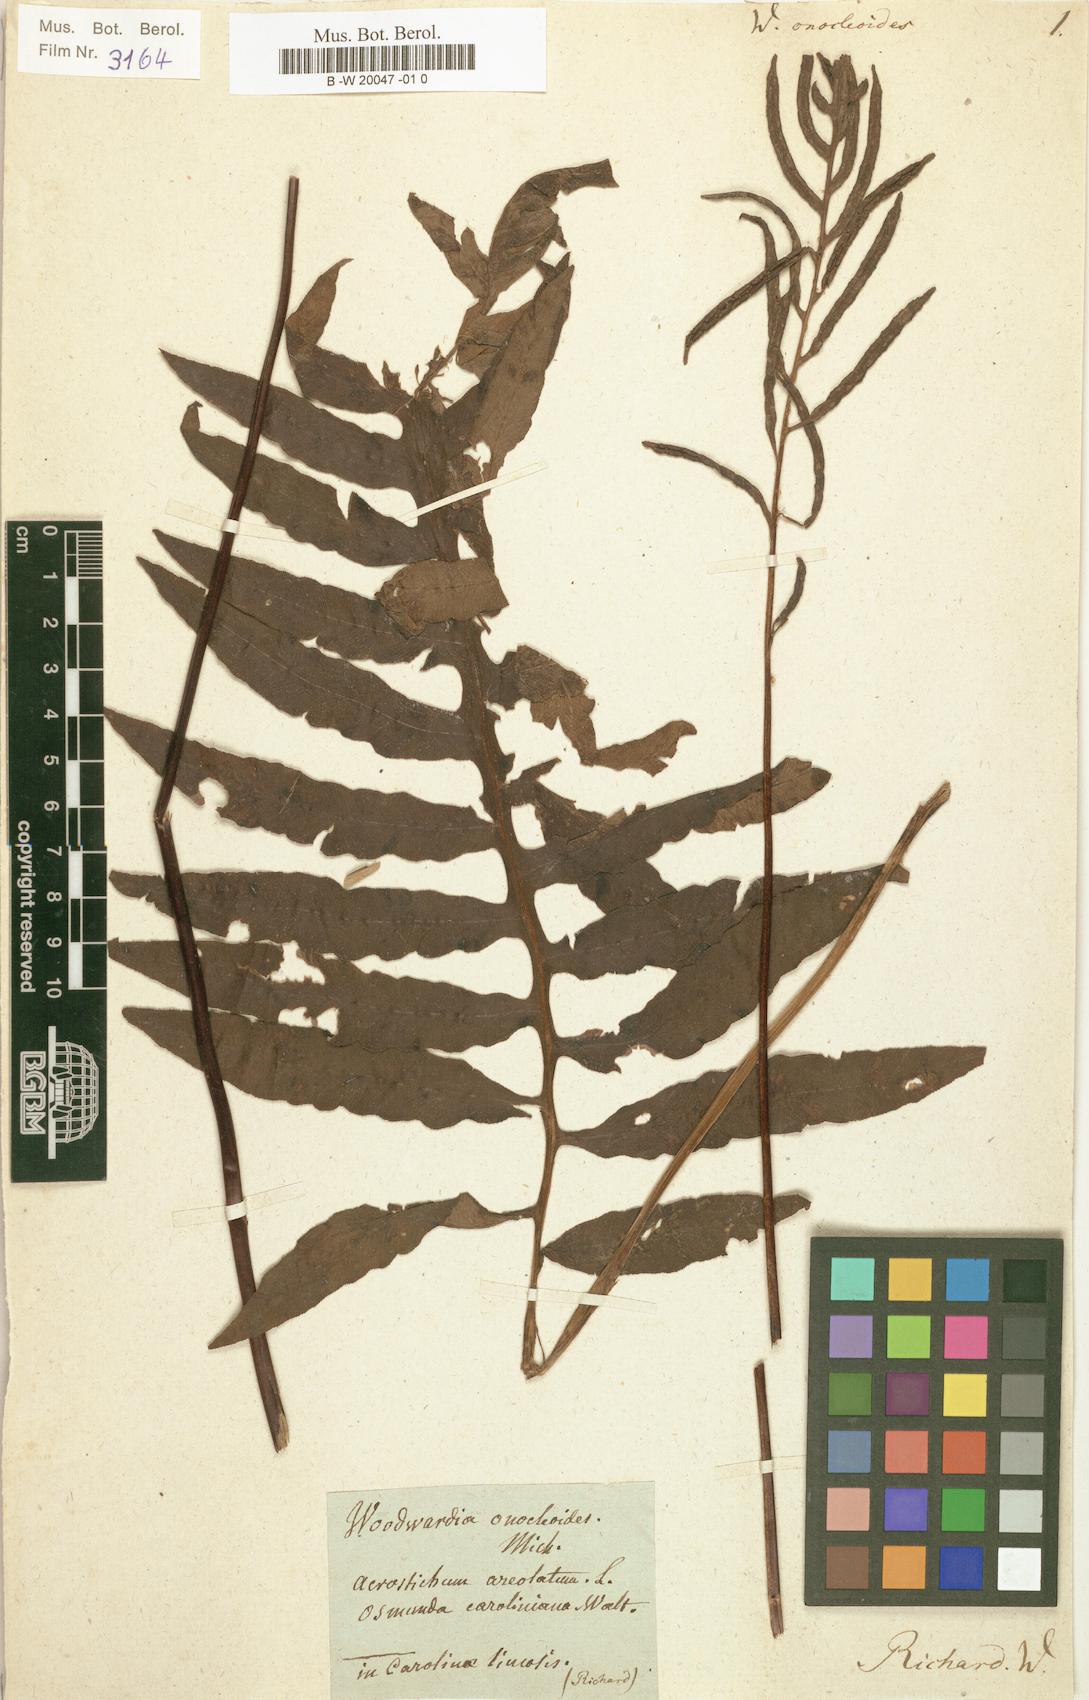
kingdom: Plantae
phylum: Tracheophyta
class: Polypodiopsida
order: Polypodiales
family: Blechnaceae
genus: Lorinseria
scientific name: Lorinseria areolata
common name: Dwarf chain fern
